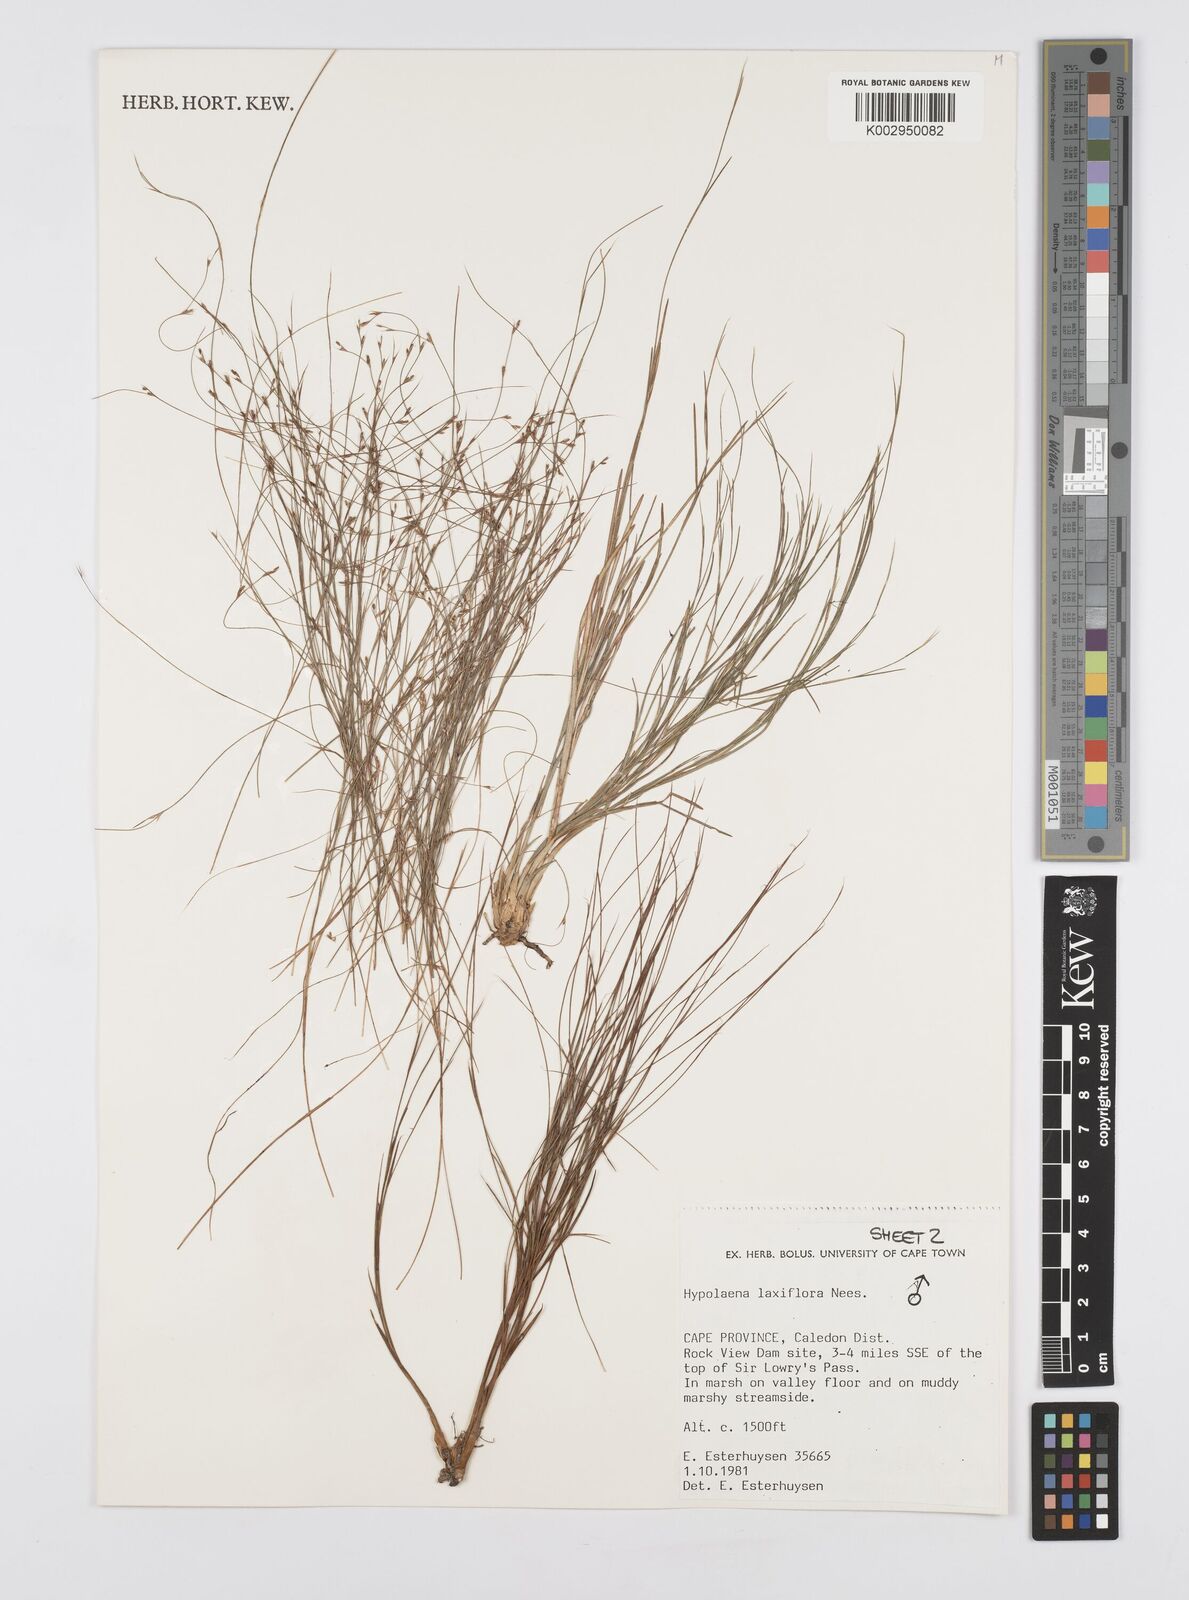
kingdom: Plantae
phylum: Tracheophyta
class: Liliopsida
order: Poales
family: Restionaceae
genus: Anthochortus
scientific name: Anthochortus laxiflorus
